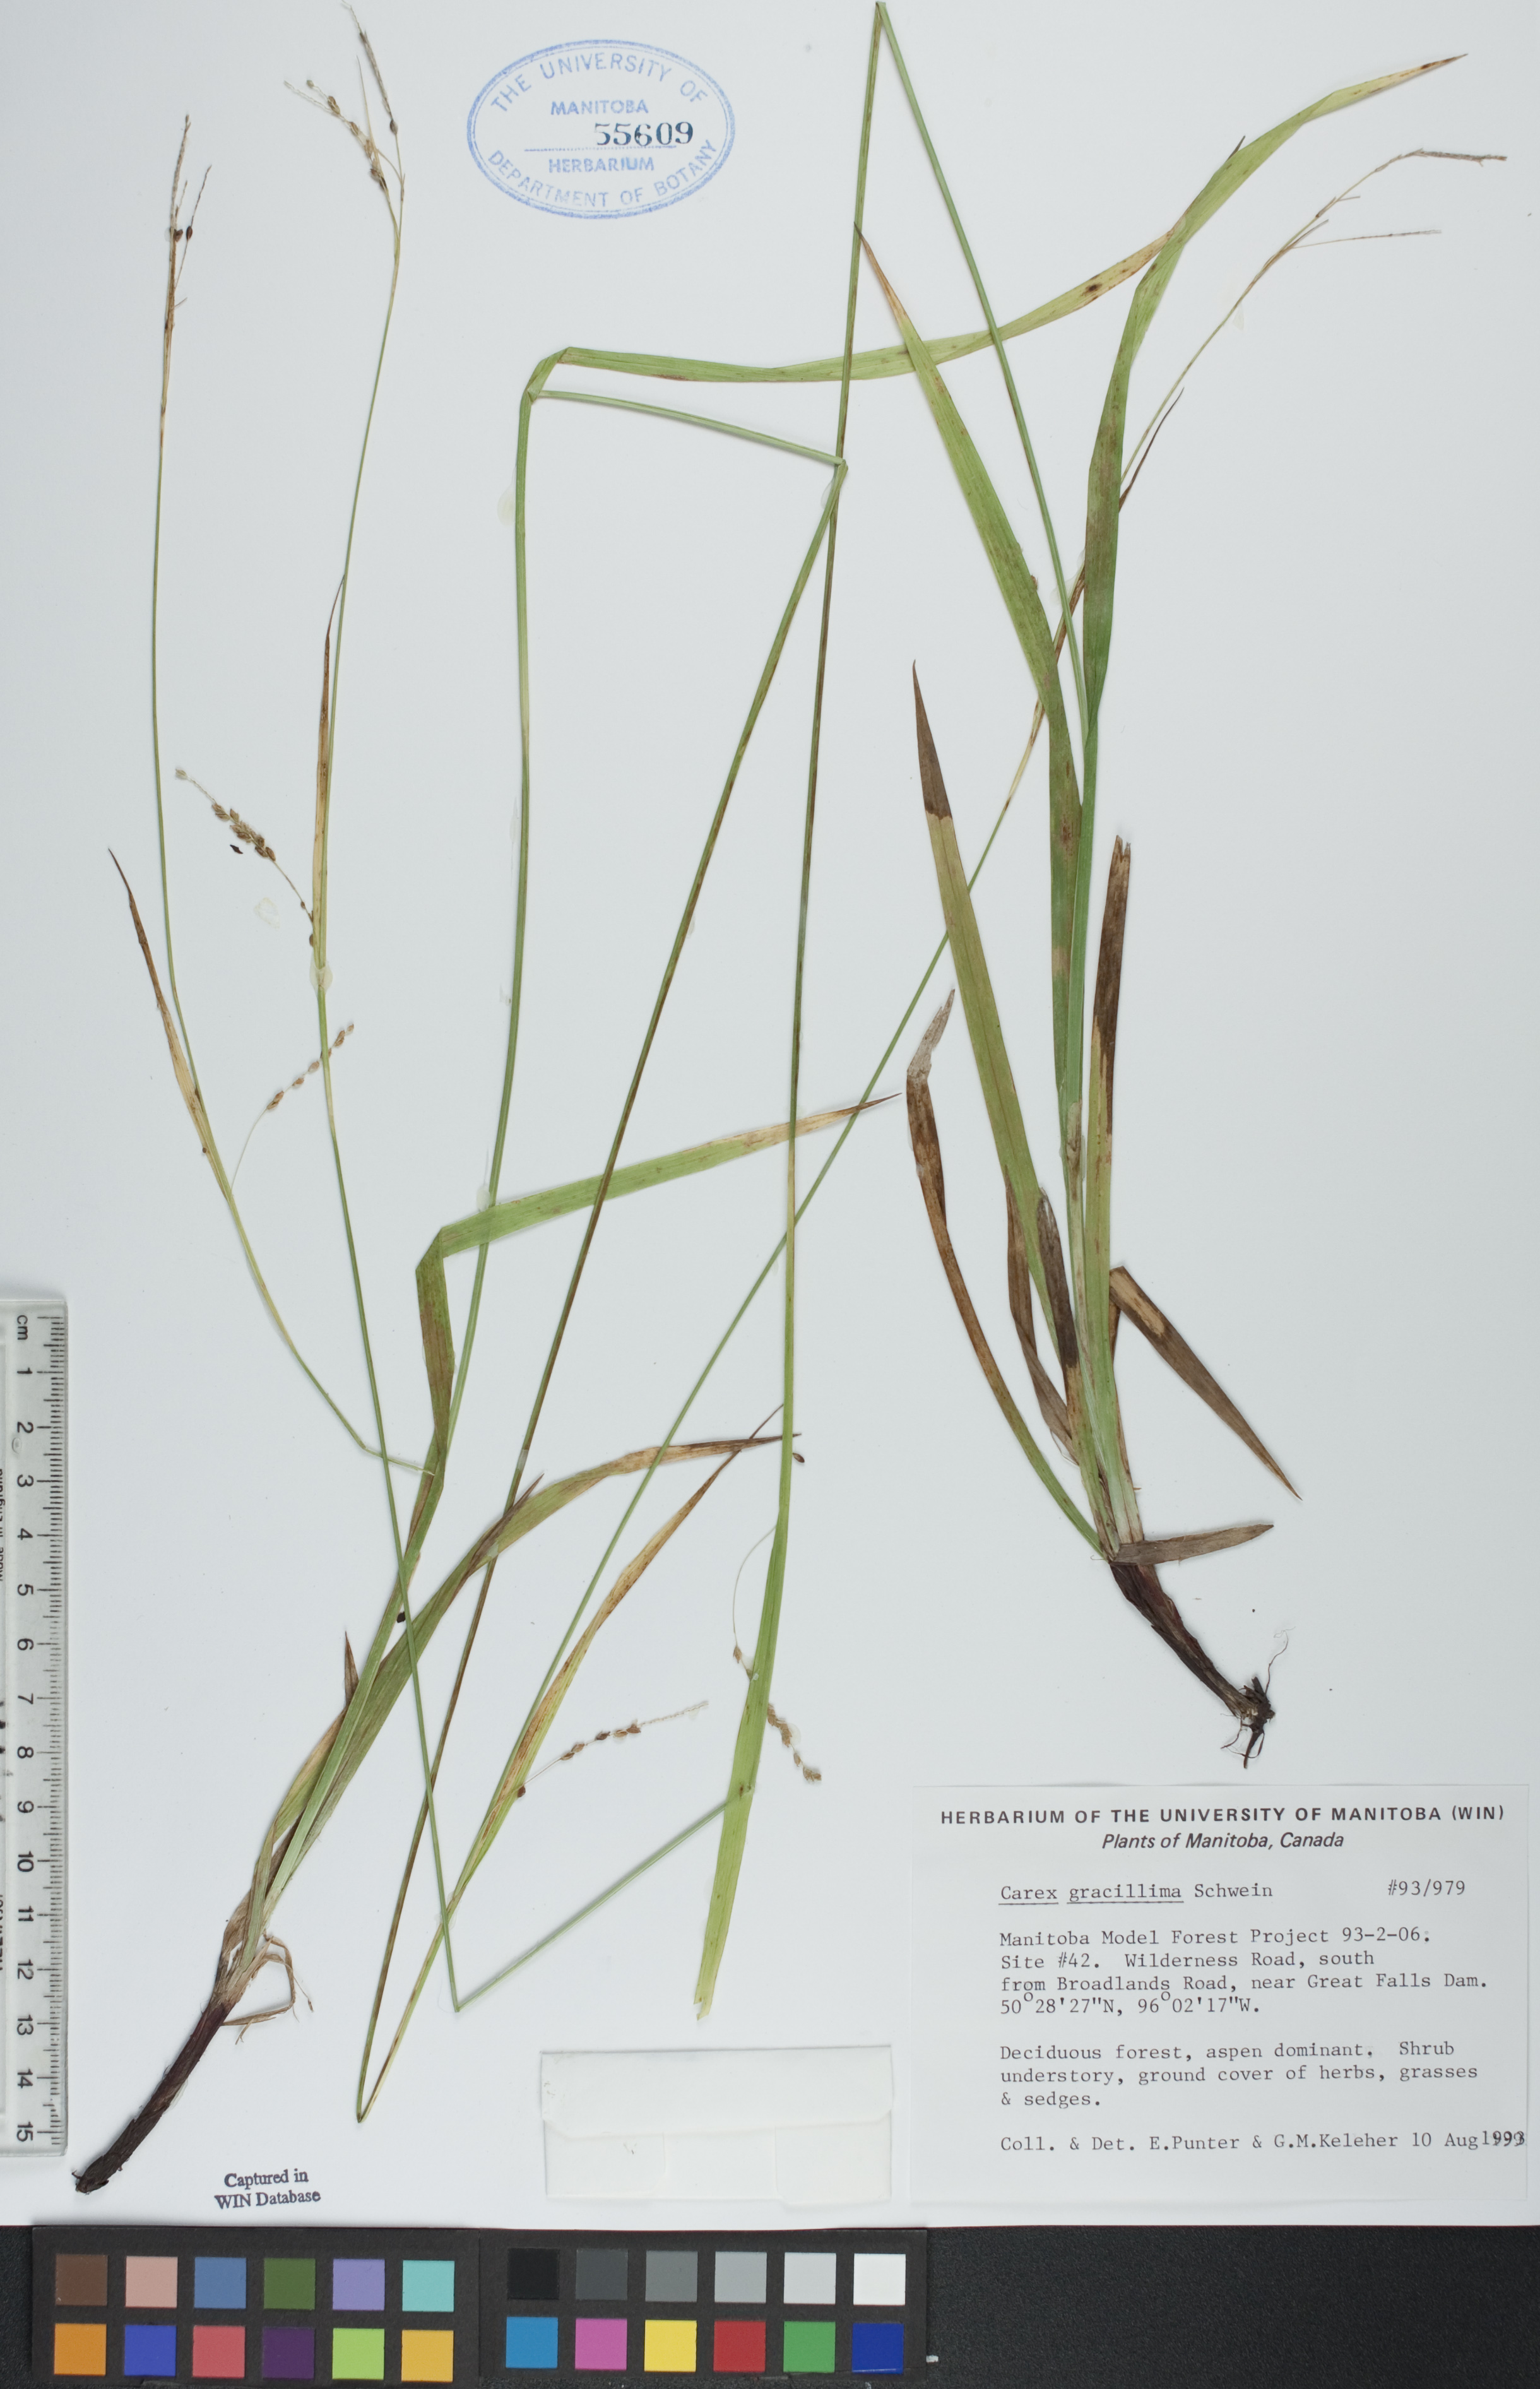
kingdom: Plantae
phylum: Tracheophyta
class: Liliopsida
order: Poales
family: Cyperaceae
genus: Carex
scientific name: Carex gracillima
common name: Graceful sedge
